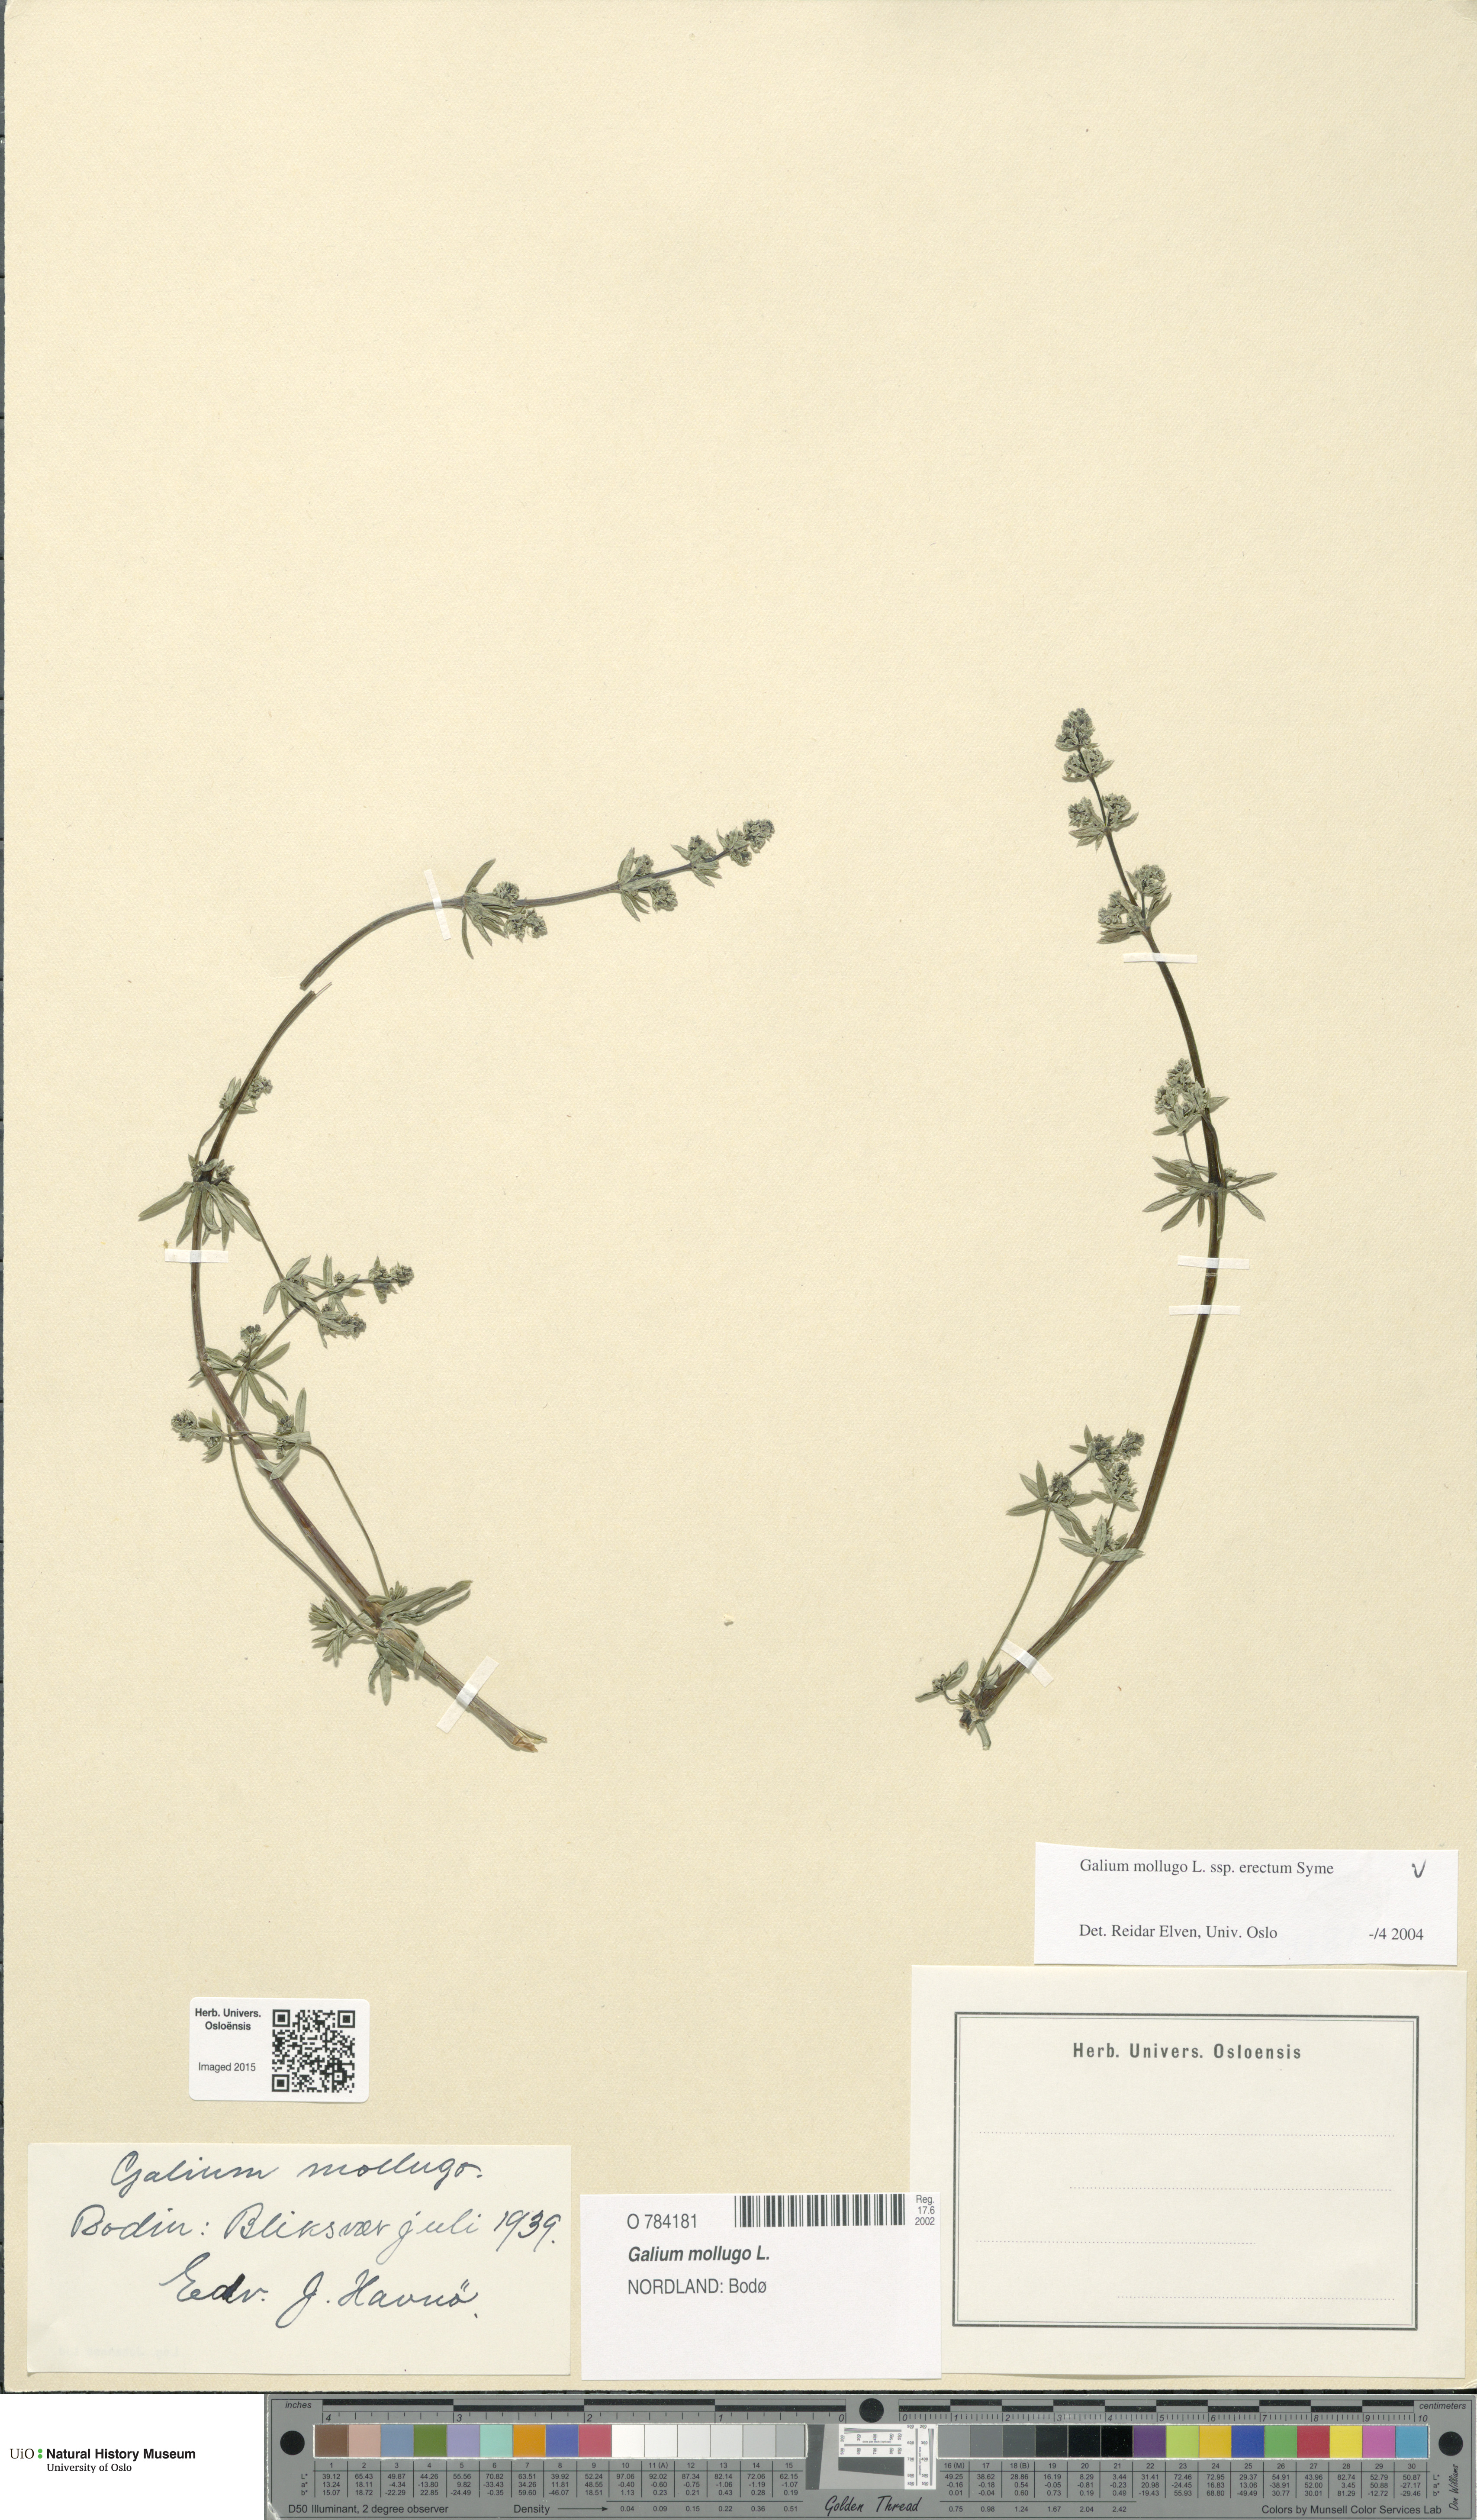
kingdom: Plantae
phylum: Tracheophyta
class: Magnoliopsida
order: Gentianales
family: Rubiaceae
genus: Galium
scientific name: Galium album
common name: White bedstraw
